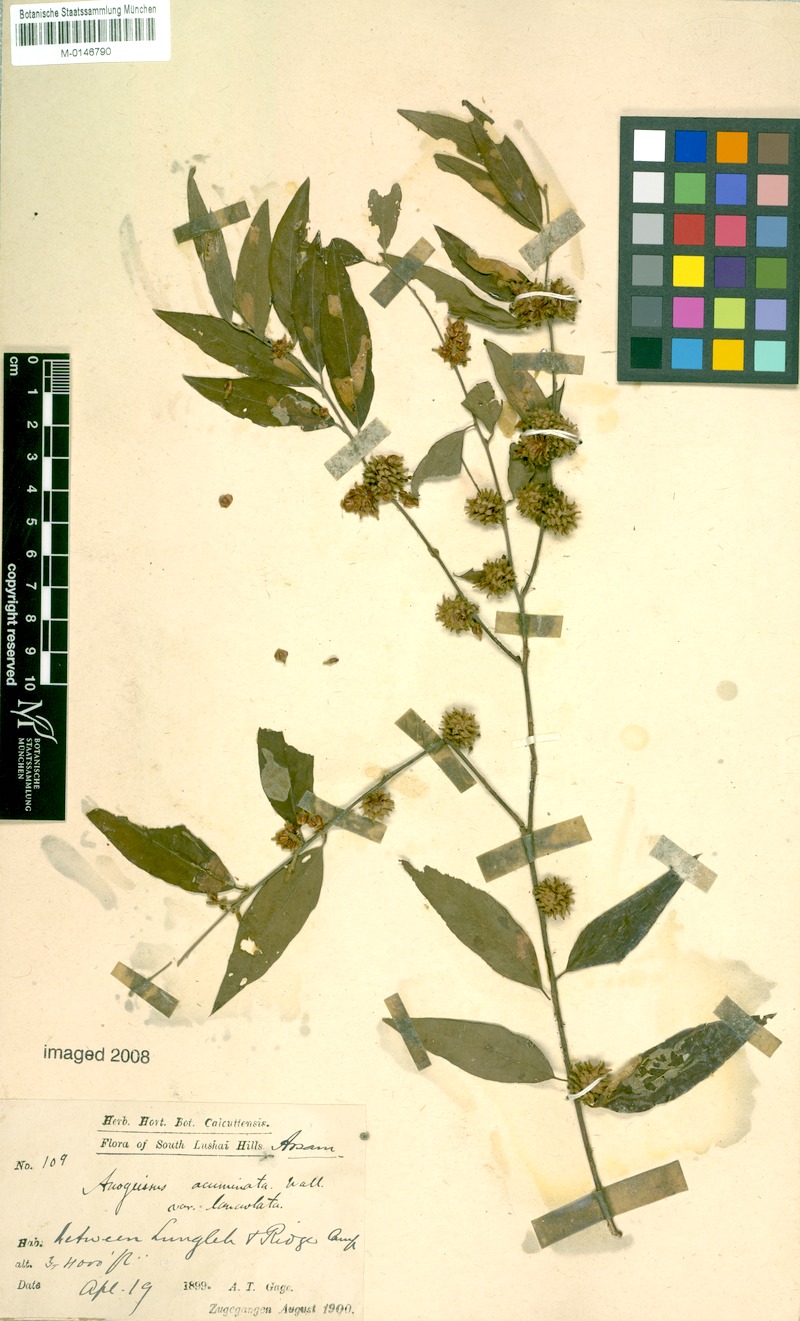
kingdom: Plantae
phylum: Tracheophyta
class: Magnoliopsida
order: Myrtales
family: Combretaceae
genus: Terminalia
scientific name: Terminalia phillyreifolia
